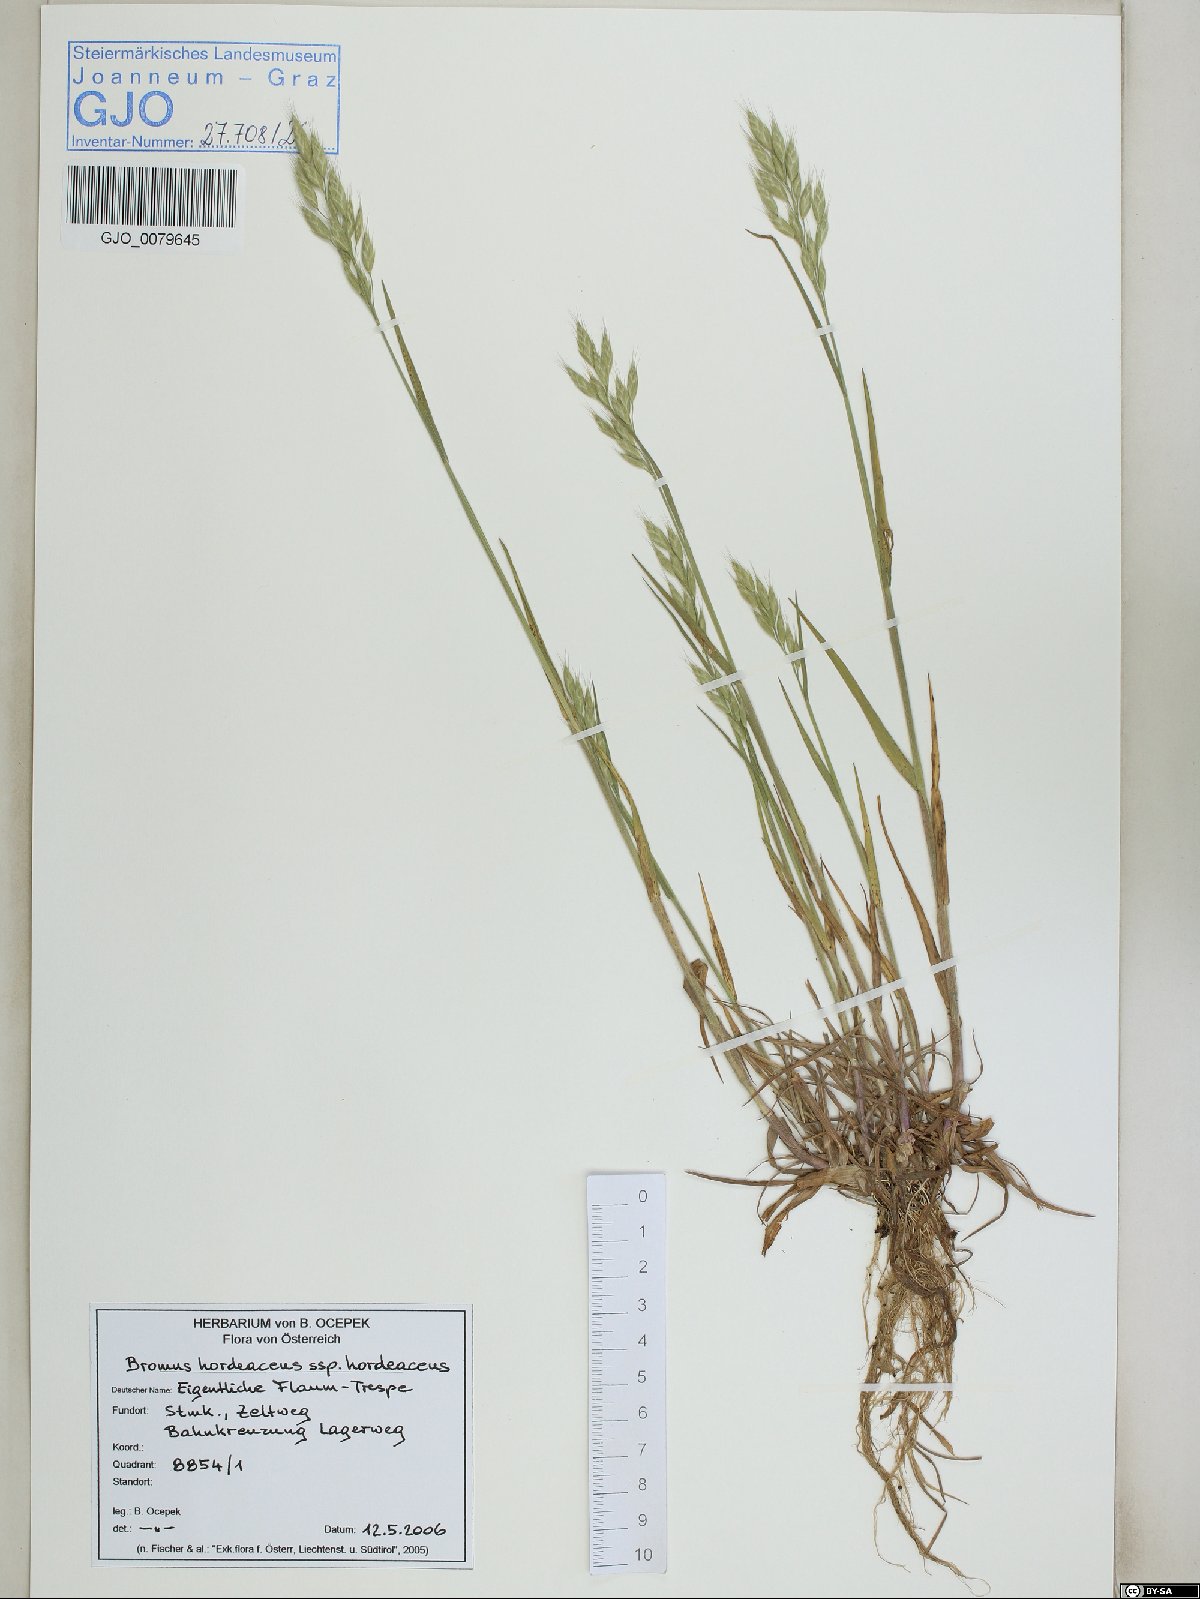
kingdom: Plantae
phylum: Tracheophyta
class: Liliopsida
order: Poales
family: Poaceae
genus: Bromus
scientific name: Bromus hordeaceus
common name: Soft brome
